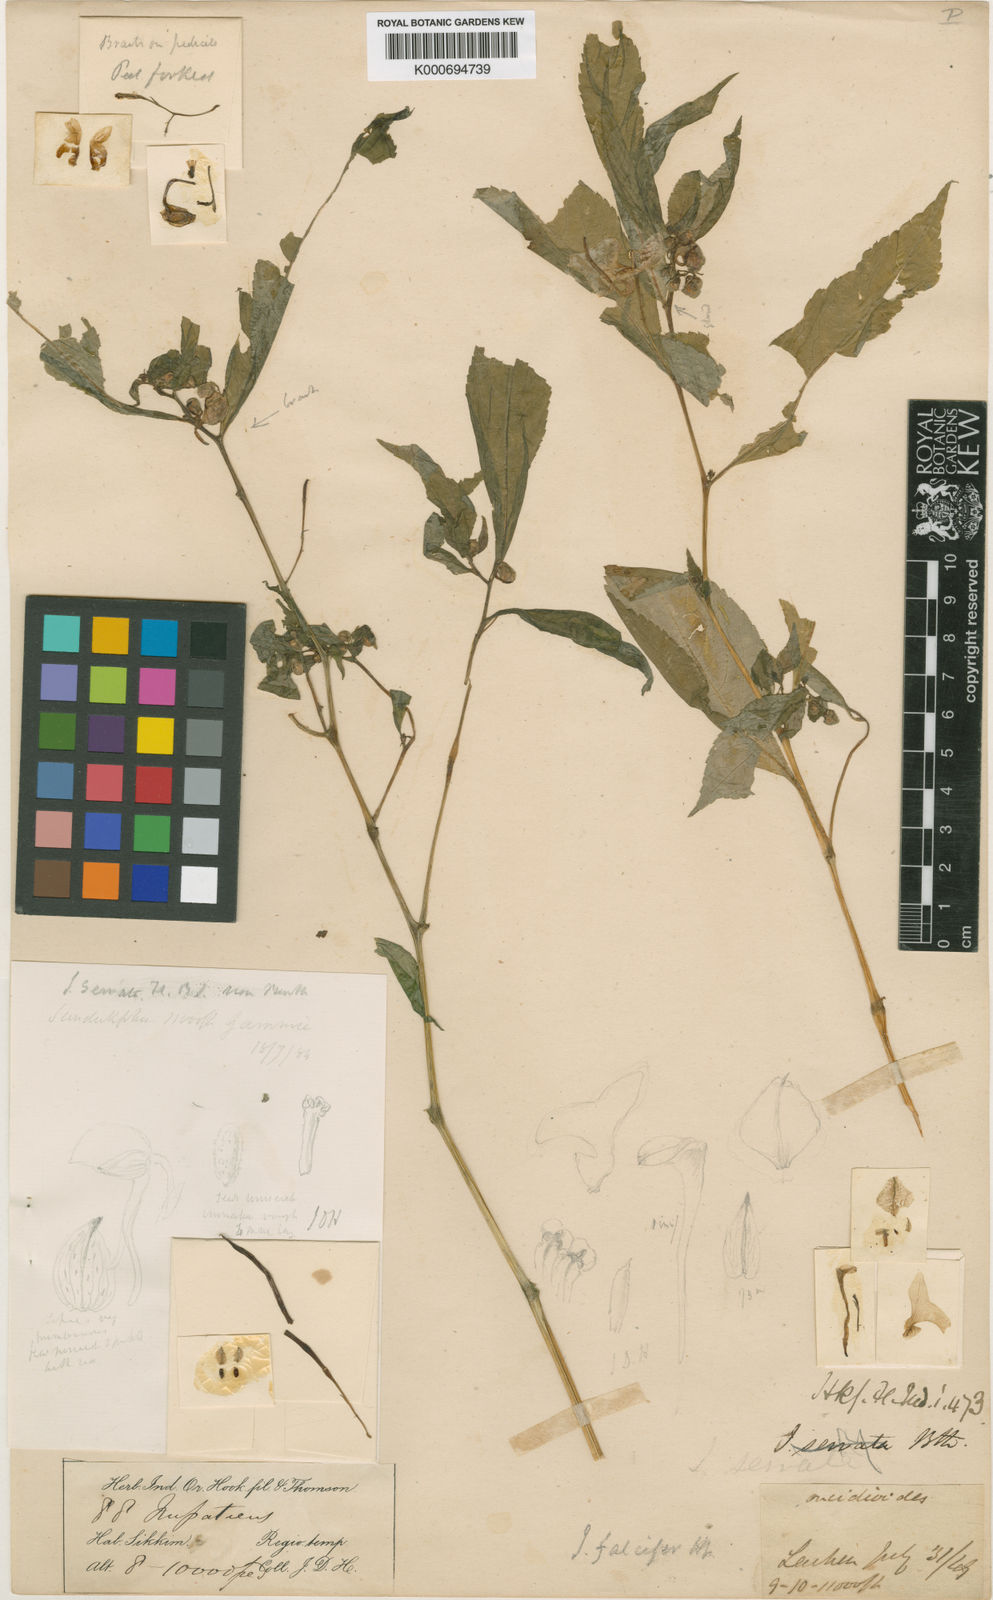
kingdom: Plantae
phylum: Tracheophyta
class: Magnoliopsida
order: Ericales
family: Balsaminaceae
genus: Impatiens
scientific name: Impatiens falcifera
